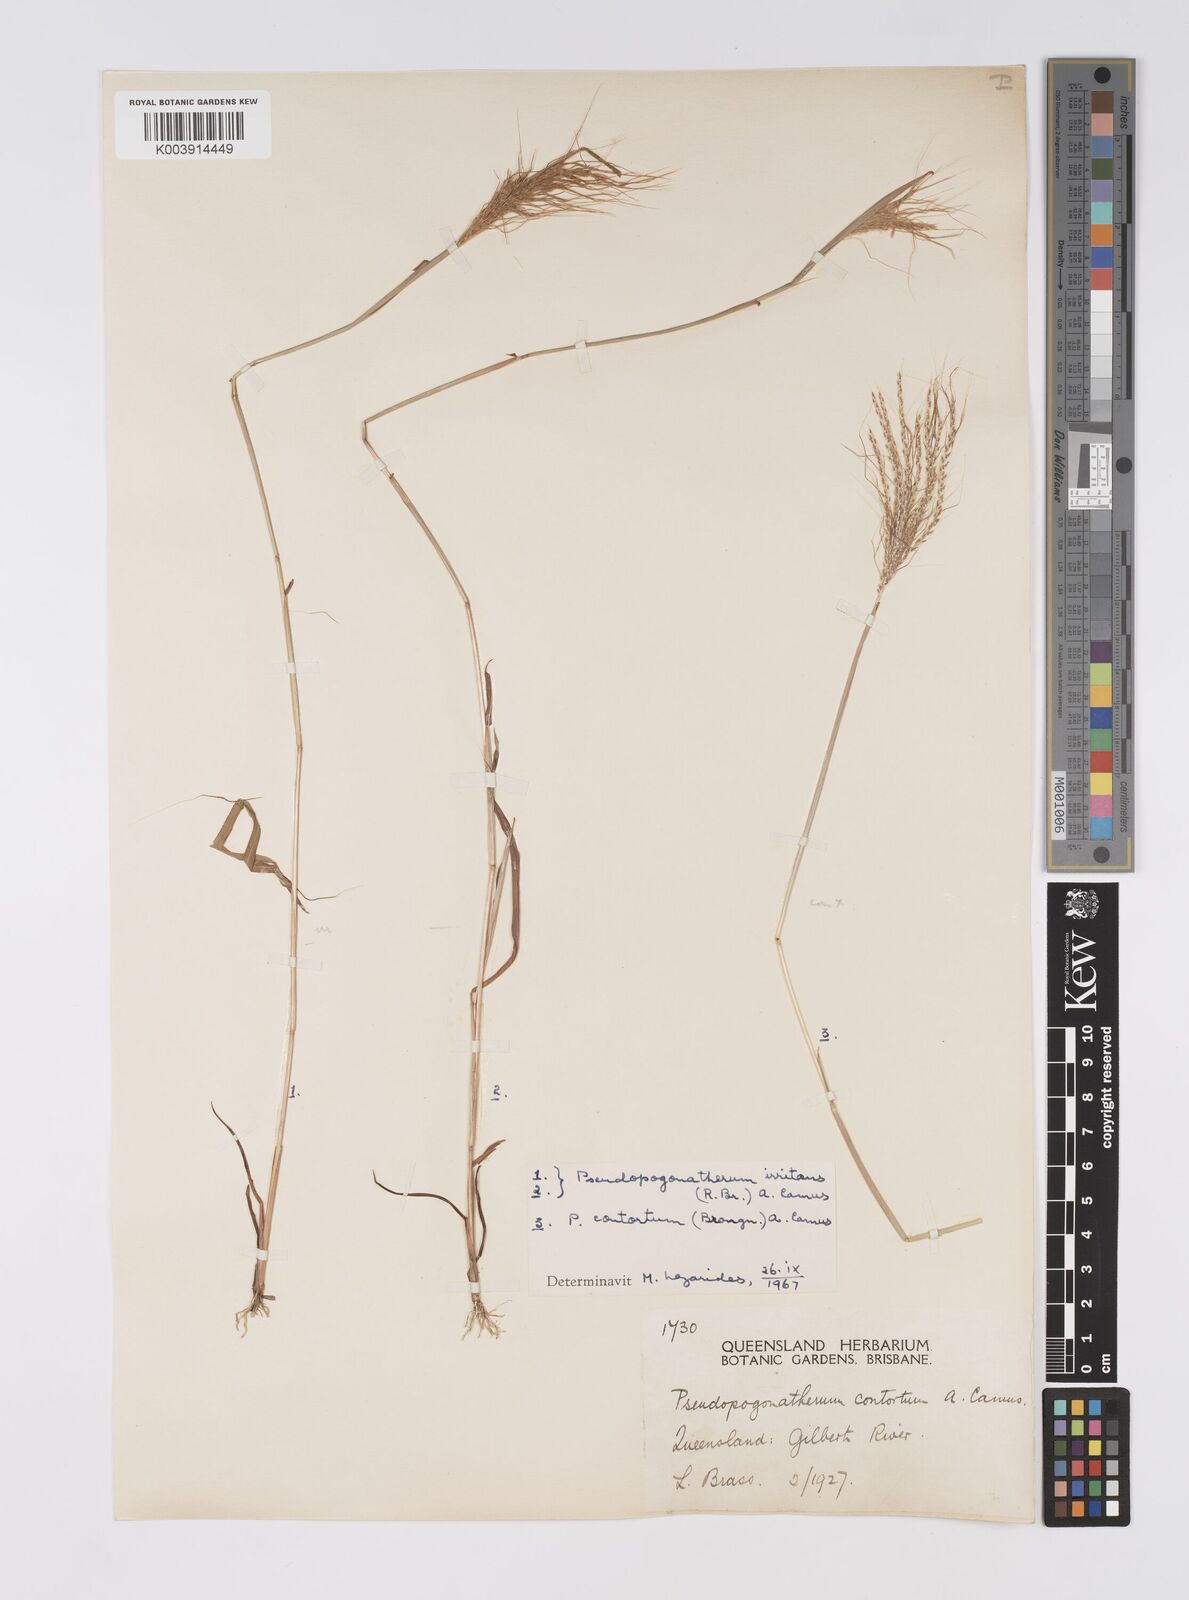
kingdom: Plantae
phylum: Tracheophyta
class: Liliopsida
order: Poales
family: Poaceae
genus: Pseudopogonatherum
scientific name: Pseudopogonatherum irritans
